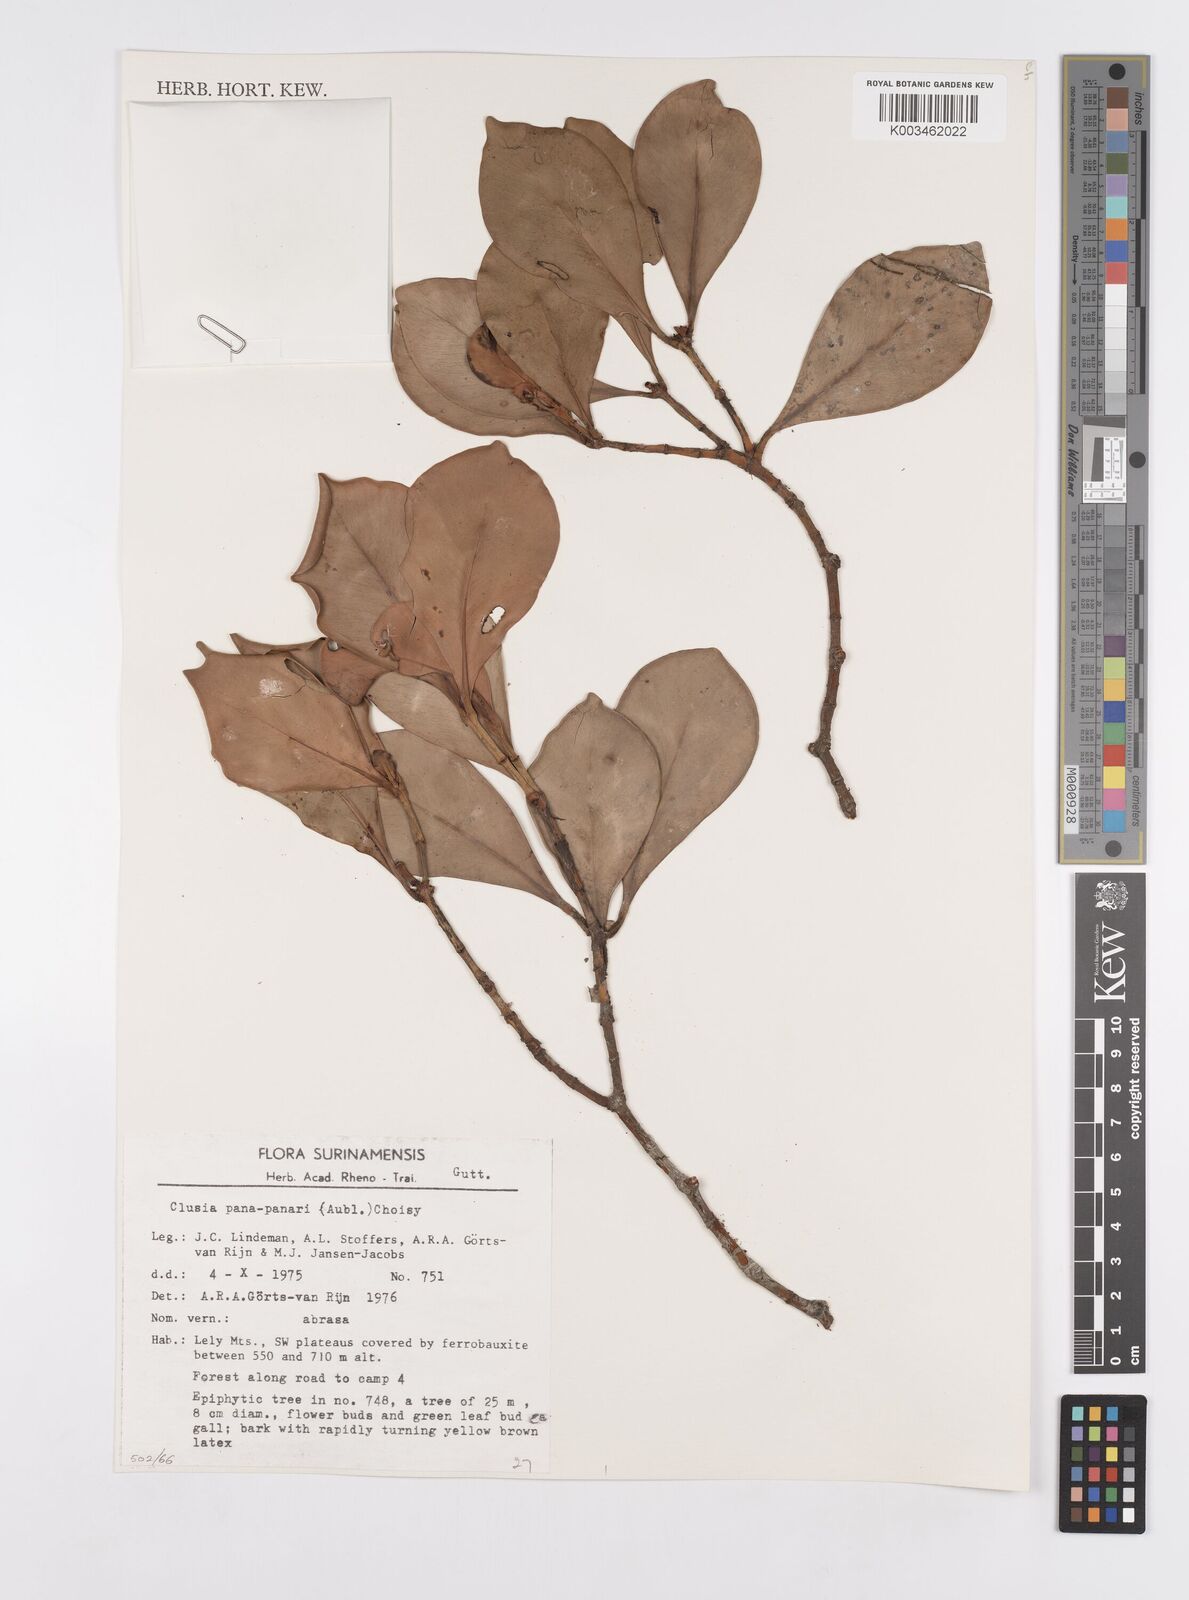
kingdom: Plantae
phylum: Tracheophyta
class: Magnoliopsida
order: Malpighiales
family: Clusiaceae
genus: Clusia
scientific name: Clusia panapanari
